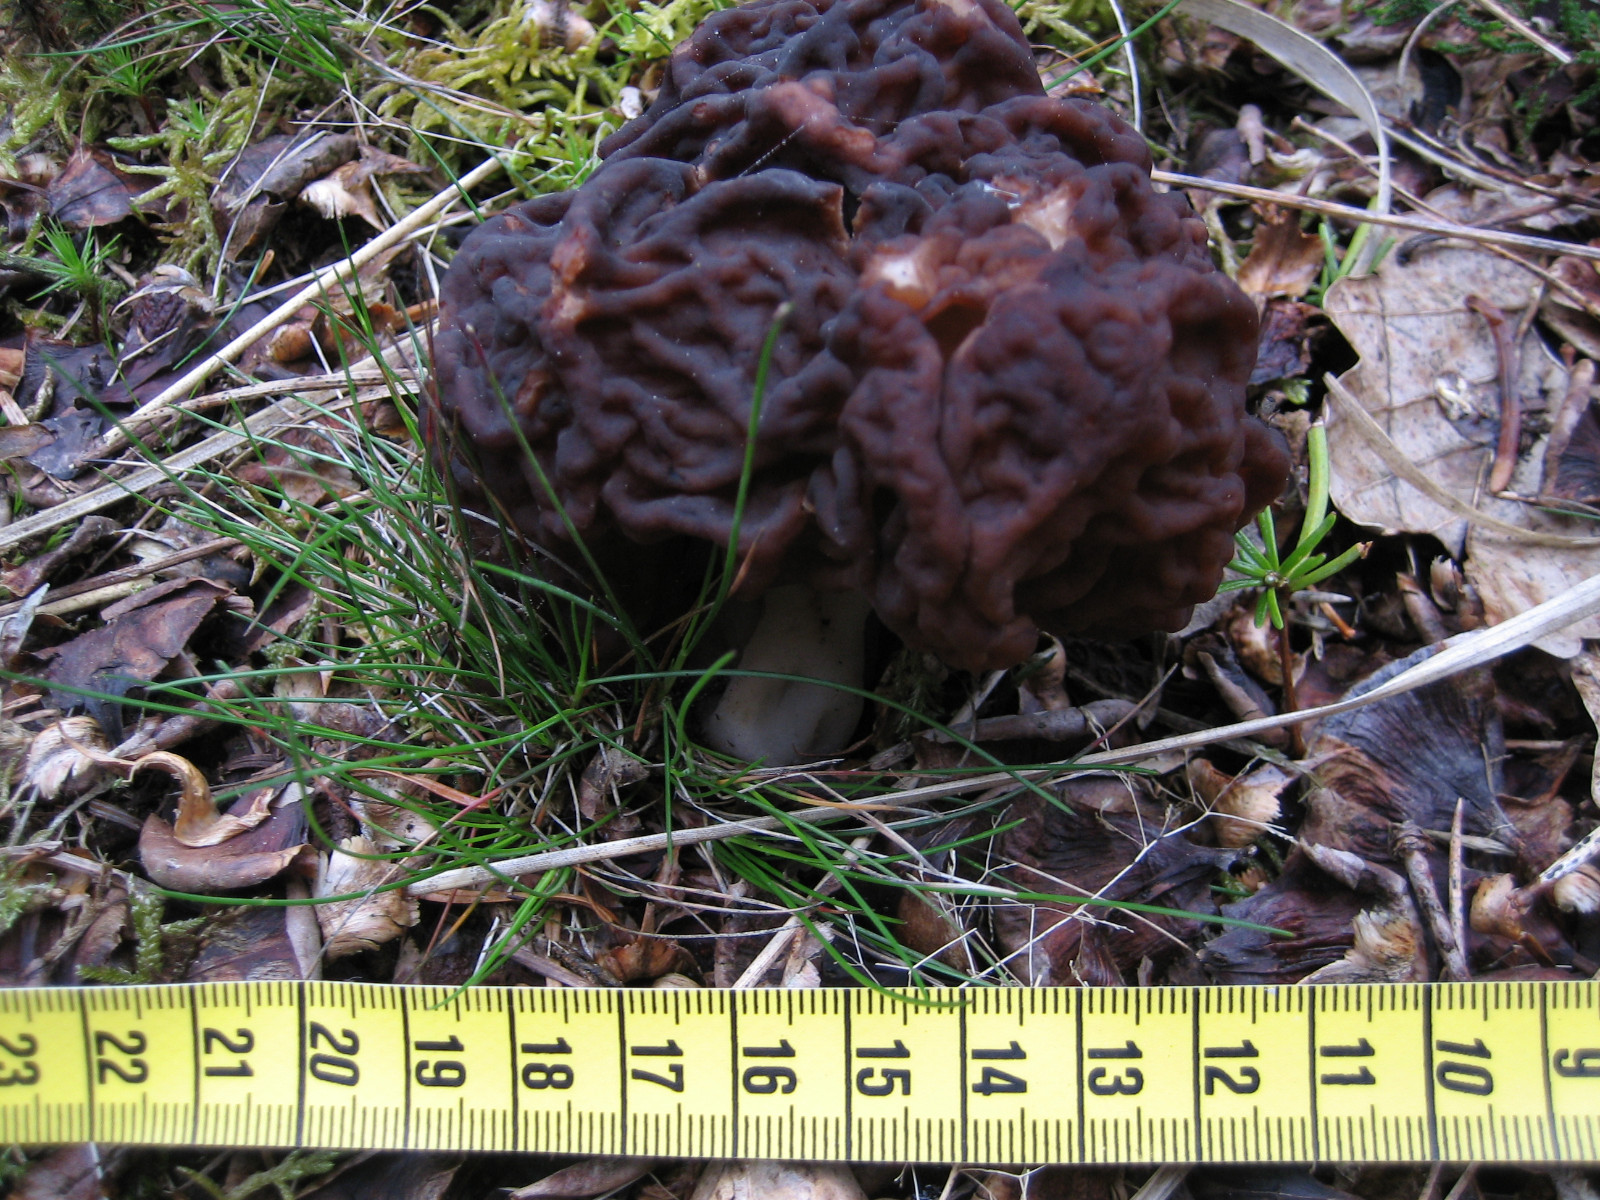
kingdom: Fungi
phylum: Ascomycota
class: Pezizomycetes
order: Pezizales
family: Discinaceae
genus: Gyromitra
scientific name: Gyromitra esculenta
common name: ægte stenmorkel
